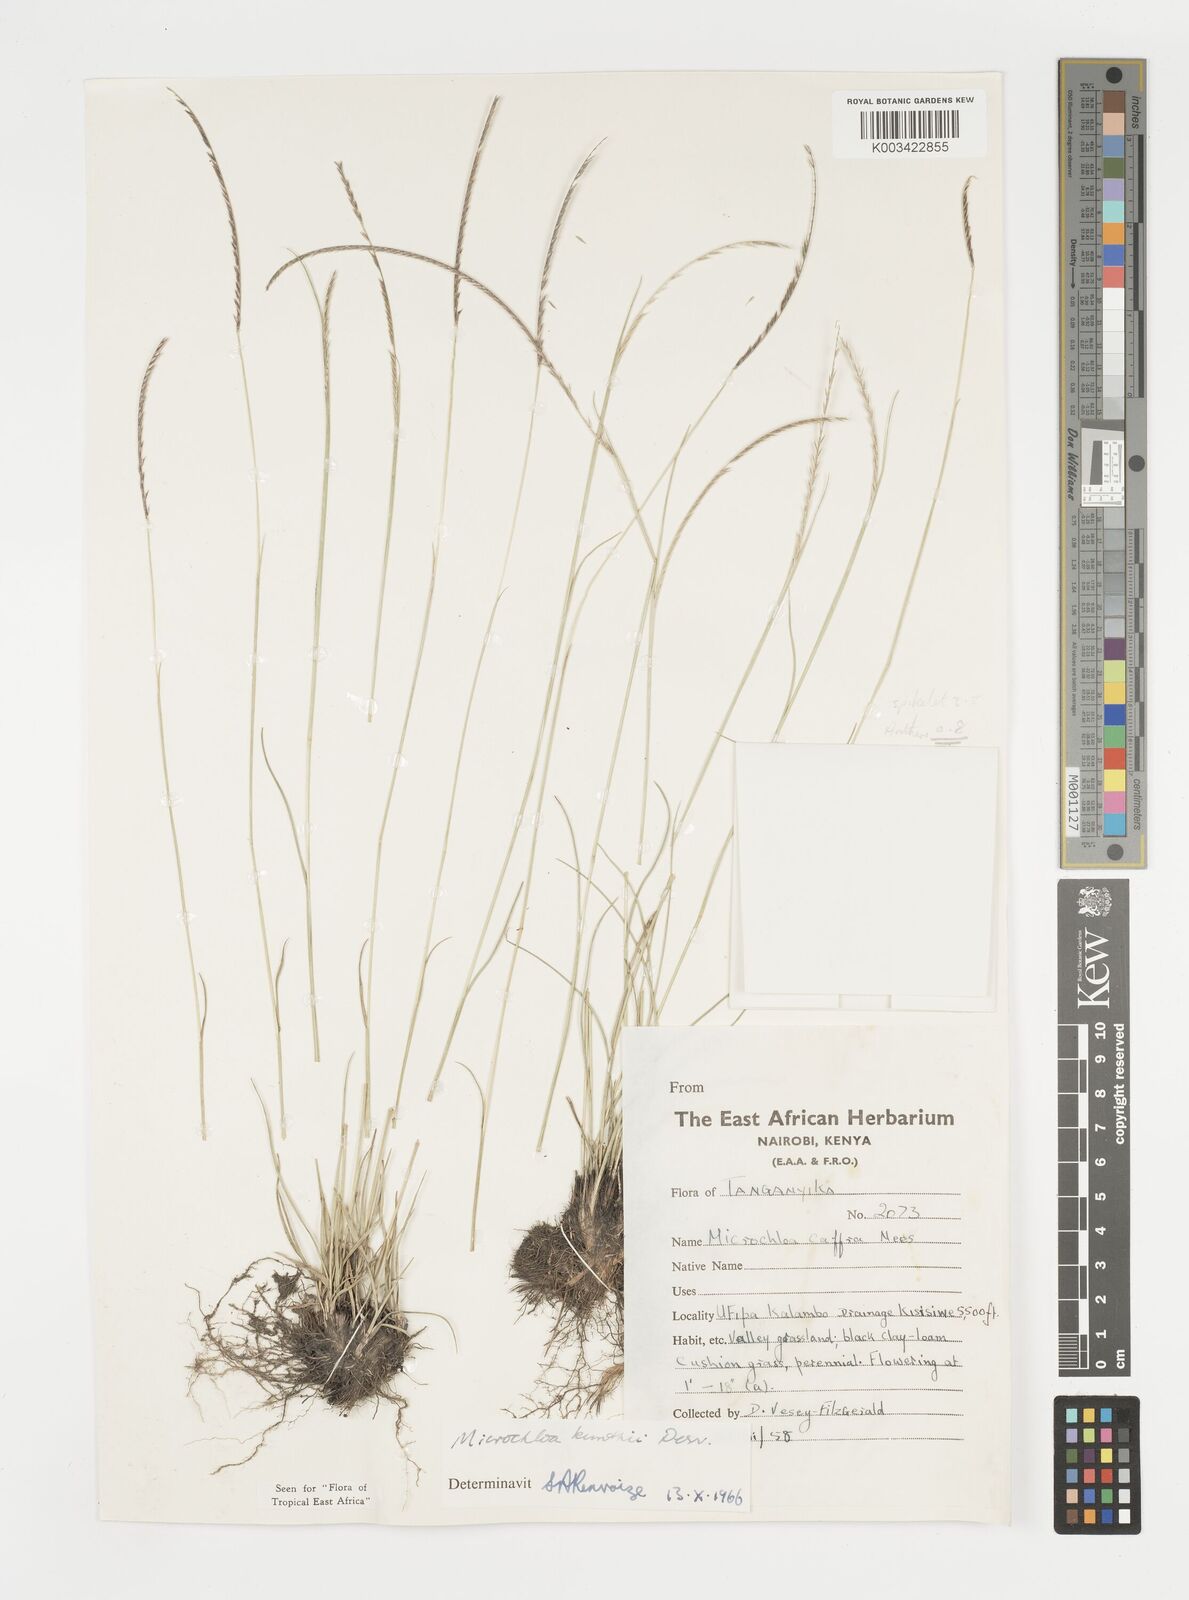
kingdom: Plantae
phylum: Tracheophyta
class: Liliopsida
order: Poales
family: Poaceae
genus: Microchloa
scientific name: Microchloa kunthii
